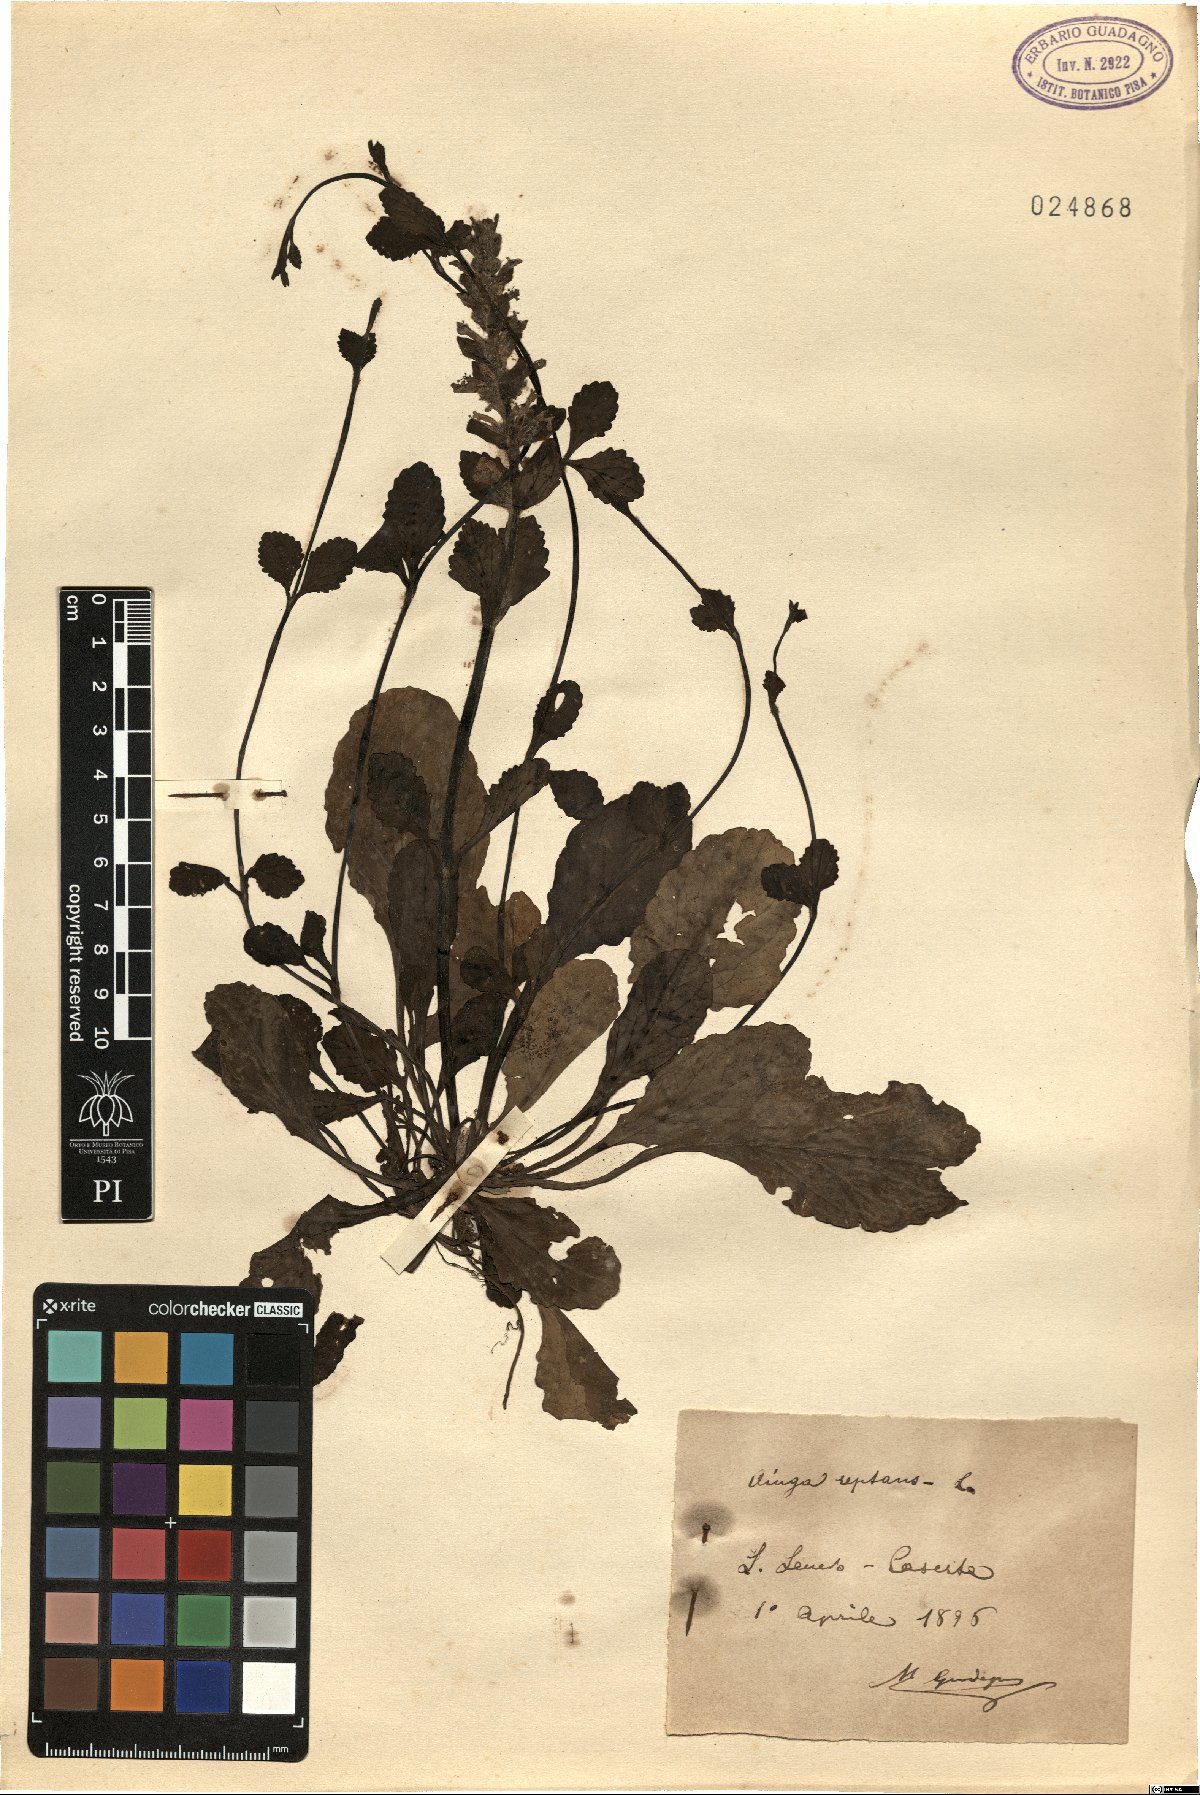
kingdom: Plantae
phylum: Tracheophyta
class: Magnoliopsida
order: Lamiales
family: Lamiaceae
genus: Ajuga
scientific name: Ajuga reptans
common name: Bugle
